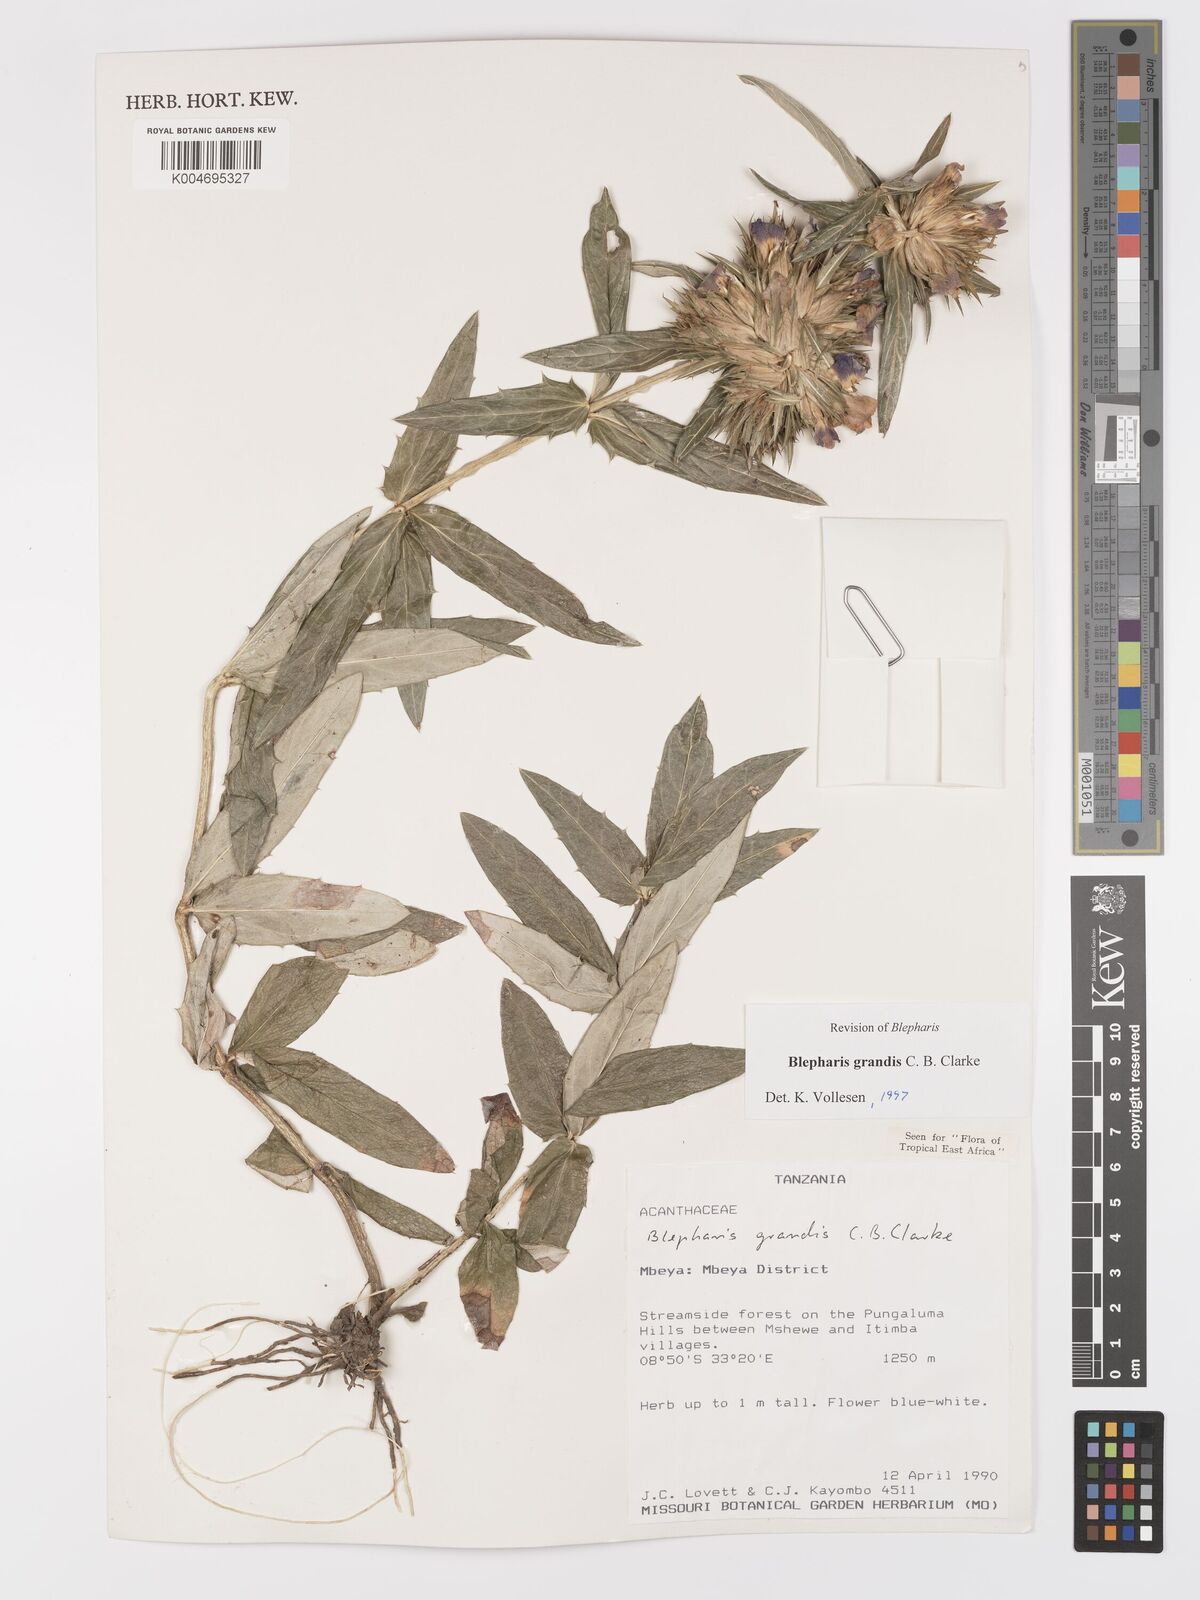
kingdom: Plantae
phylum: Tracheophyta
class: Magnoliopsida
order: Lamiales
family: Acanthaceae
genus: Blepharis
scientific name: Blepharis grandis
